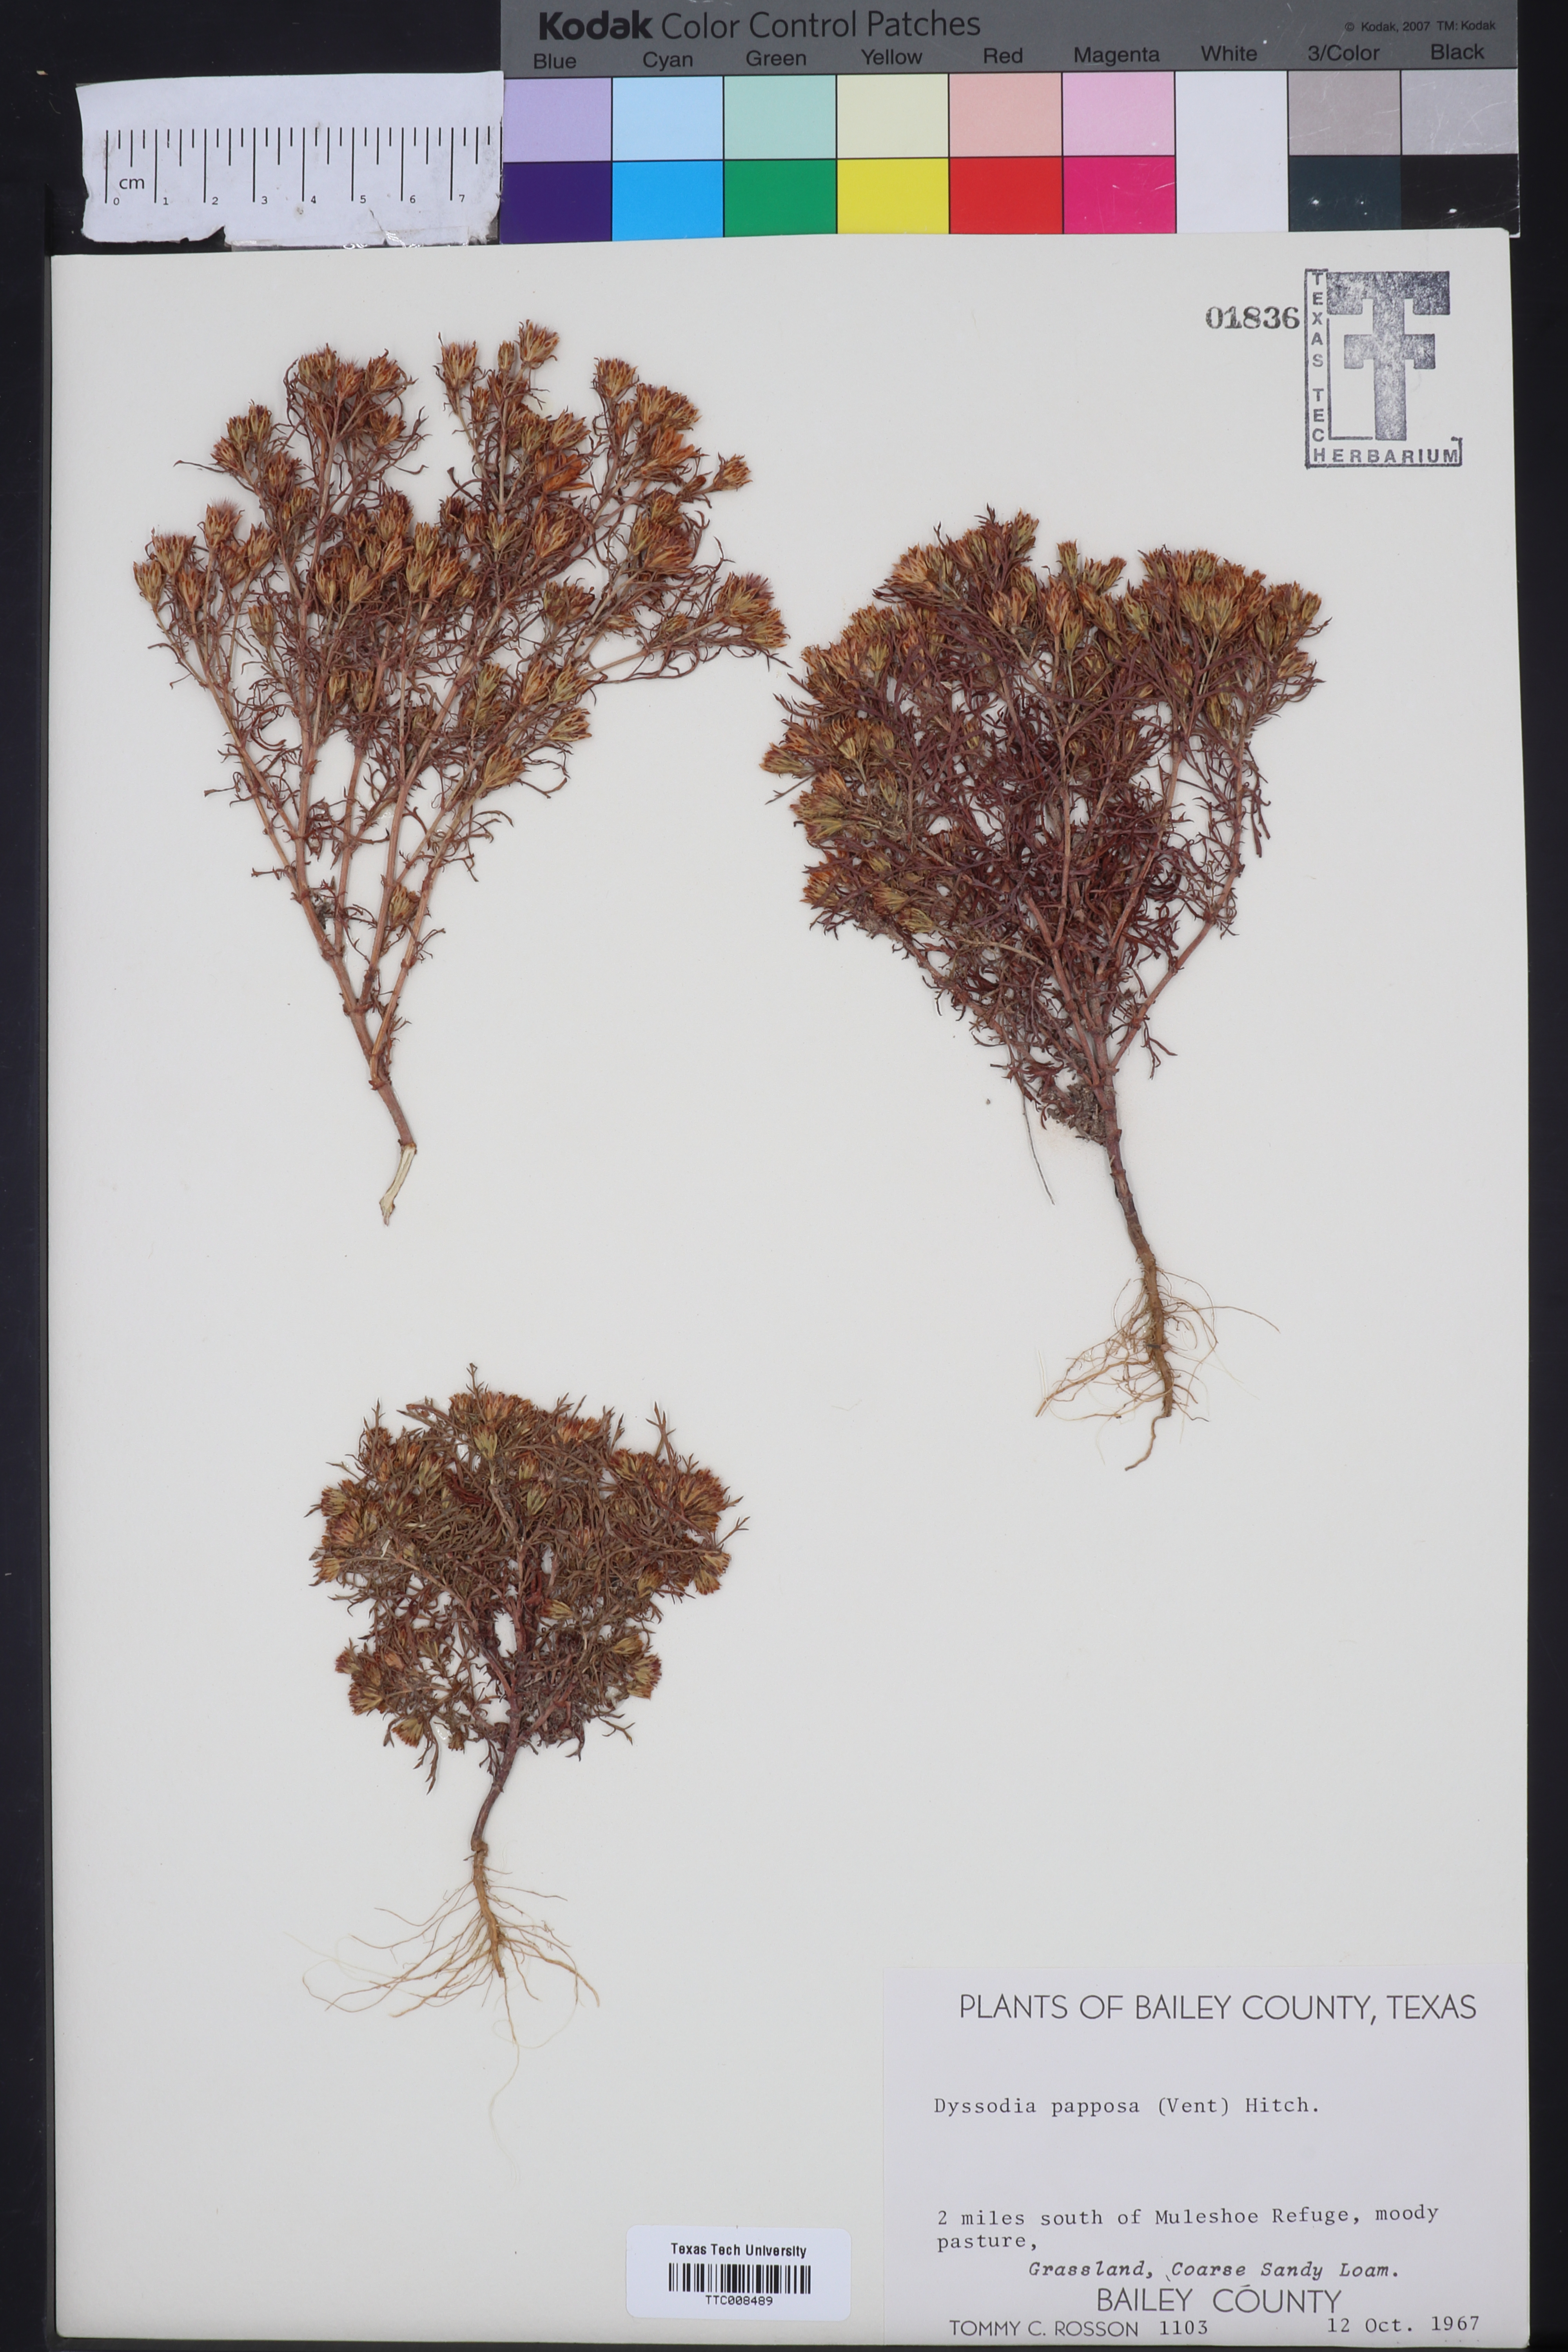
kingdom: Plantae
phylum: Tracheophyta
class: Magnoliopsida
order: Asterales
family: Asteraceae
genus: Dyssodia
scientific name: Dyssodia papposa
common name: Dogweed
